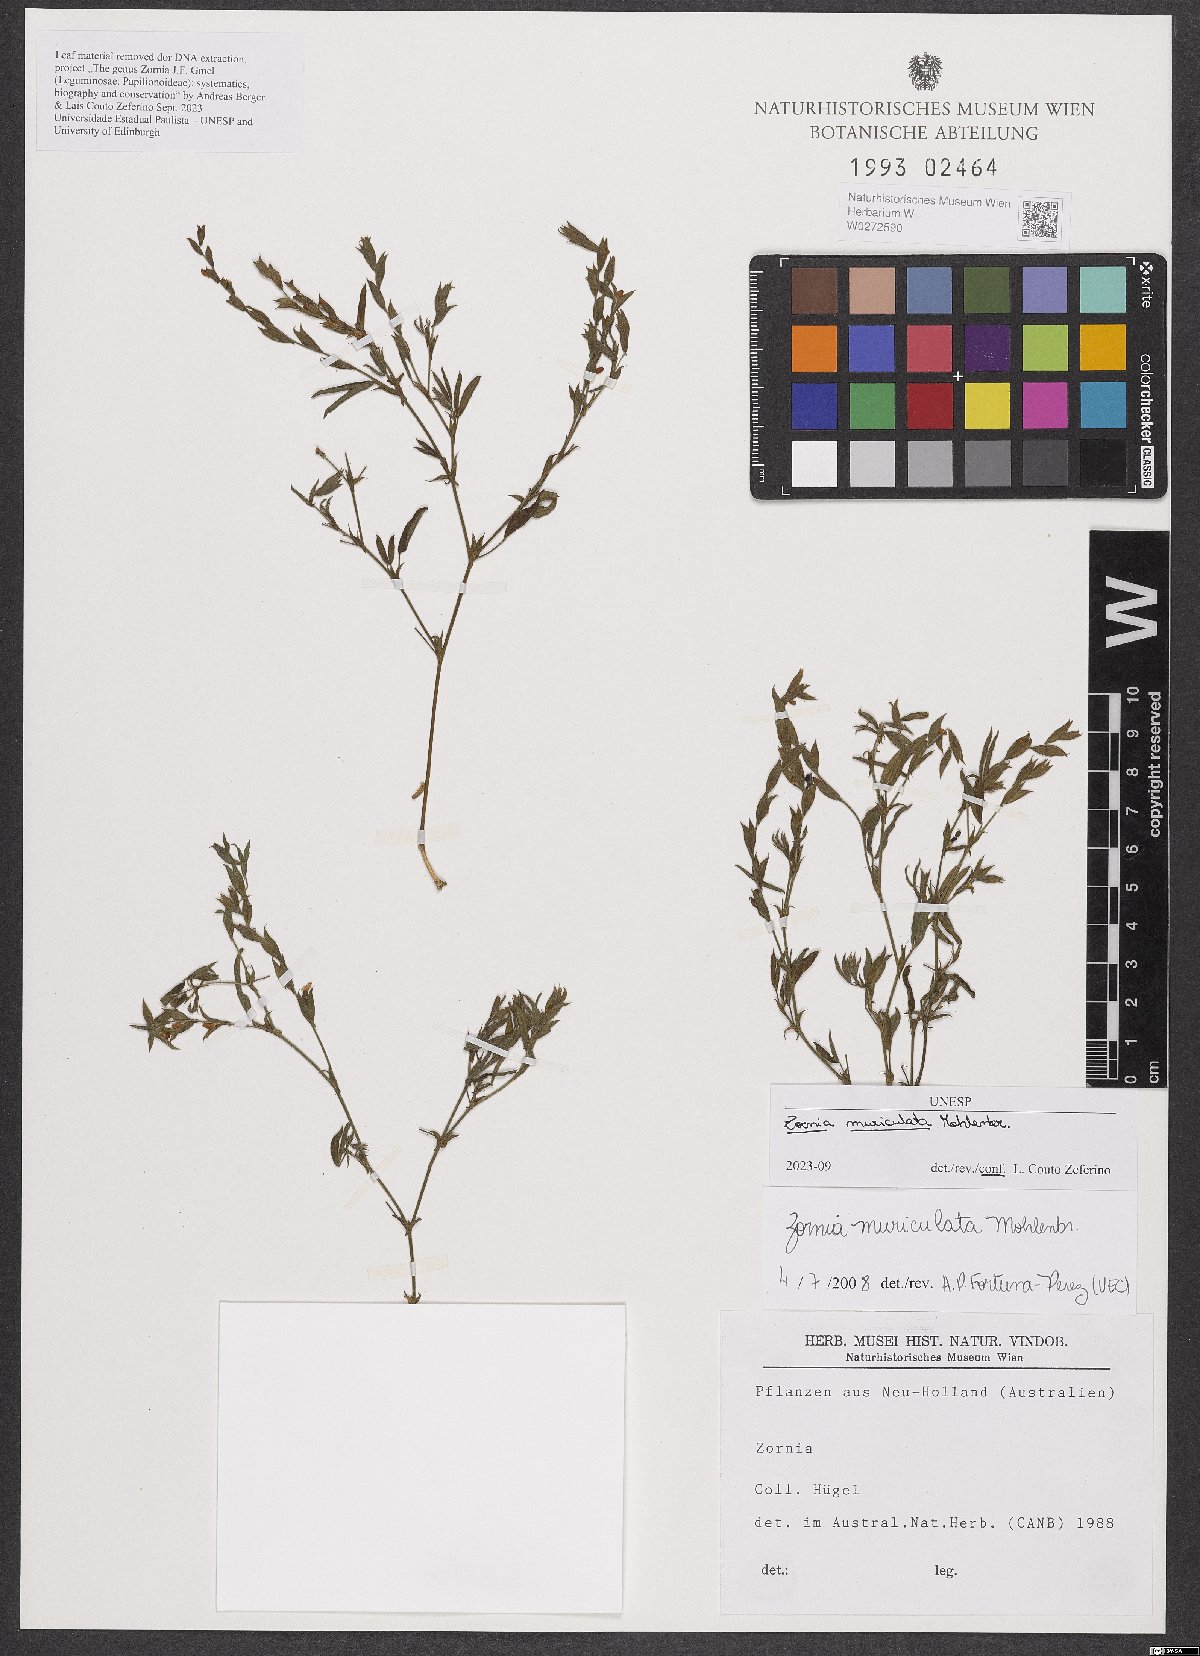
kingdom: Plantae
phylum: Tracheophyta
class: Magnoliopsida
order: Fabales
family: Fabaceae
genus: Zornia
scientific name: Zornia muriculata
